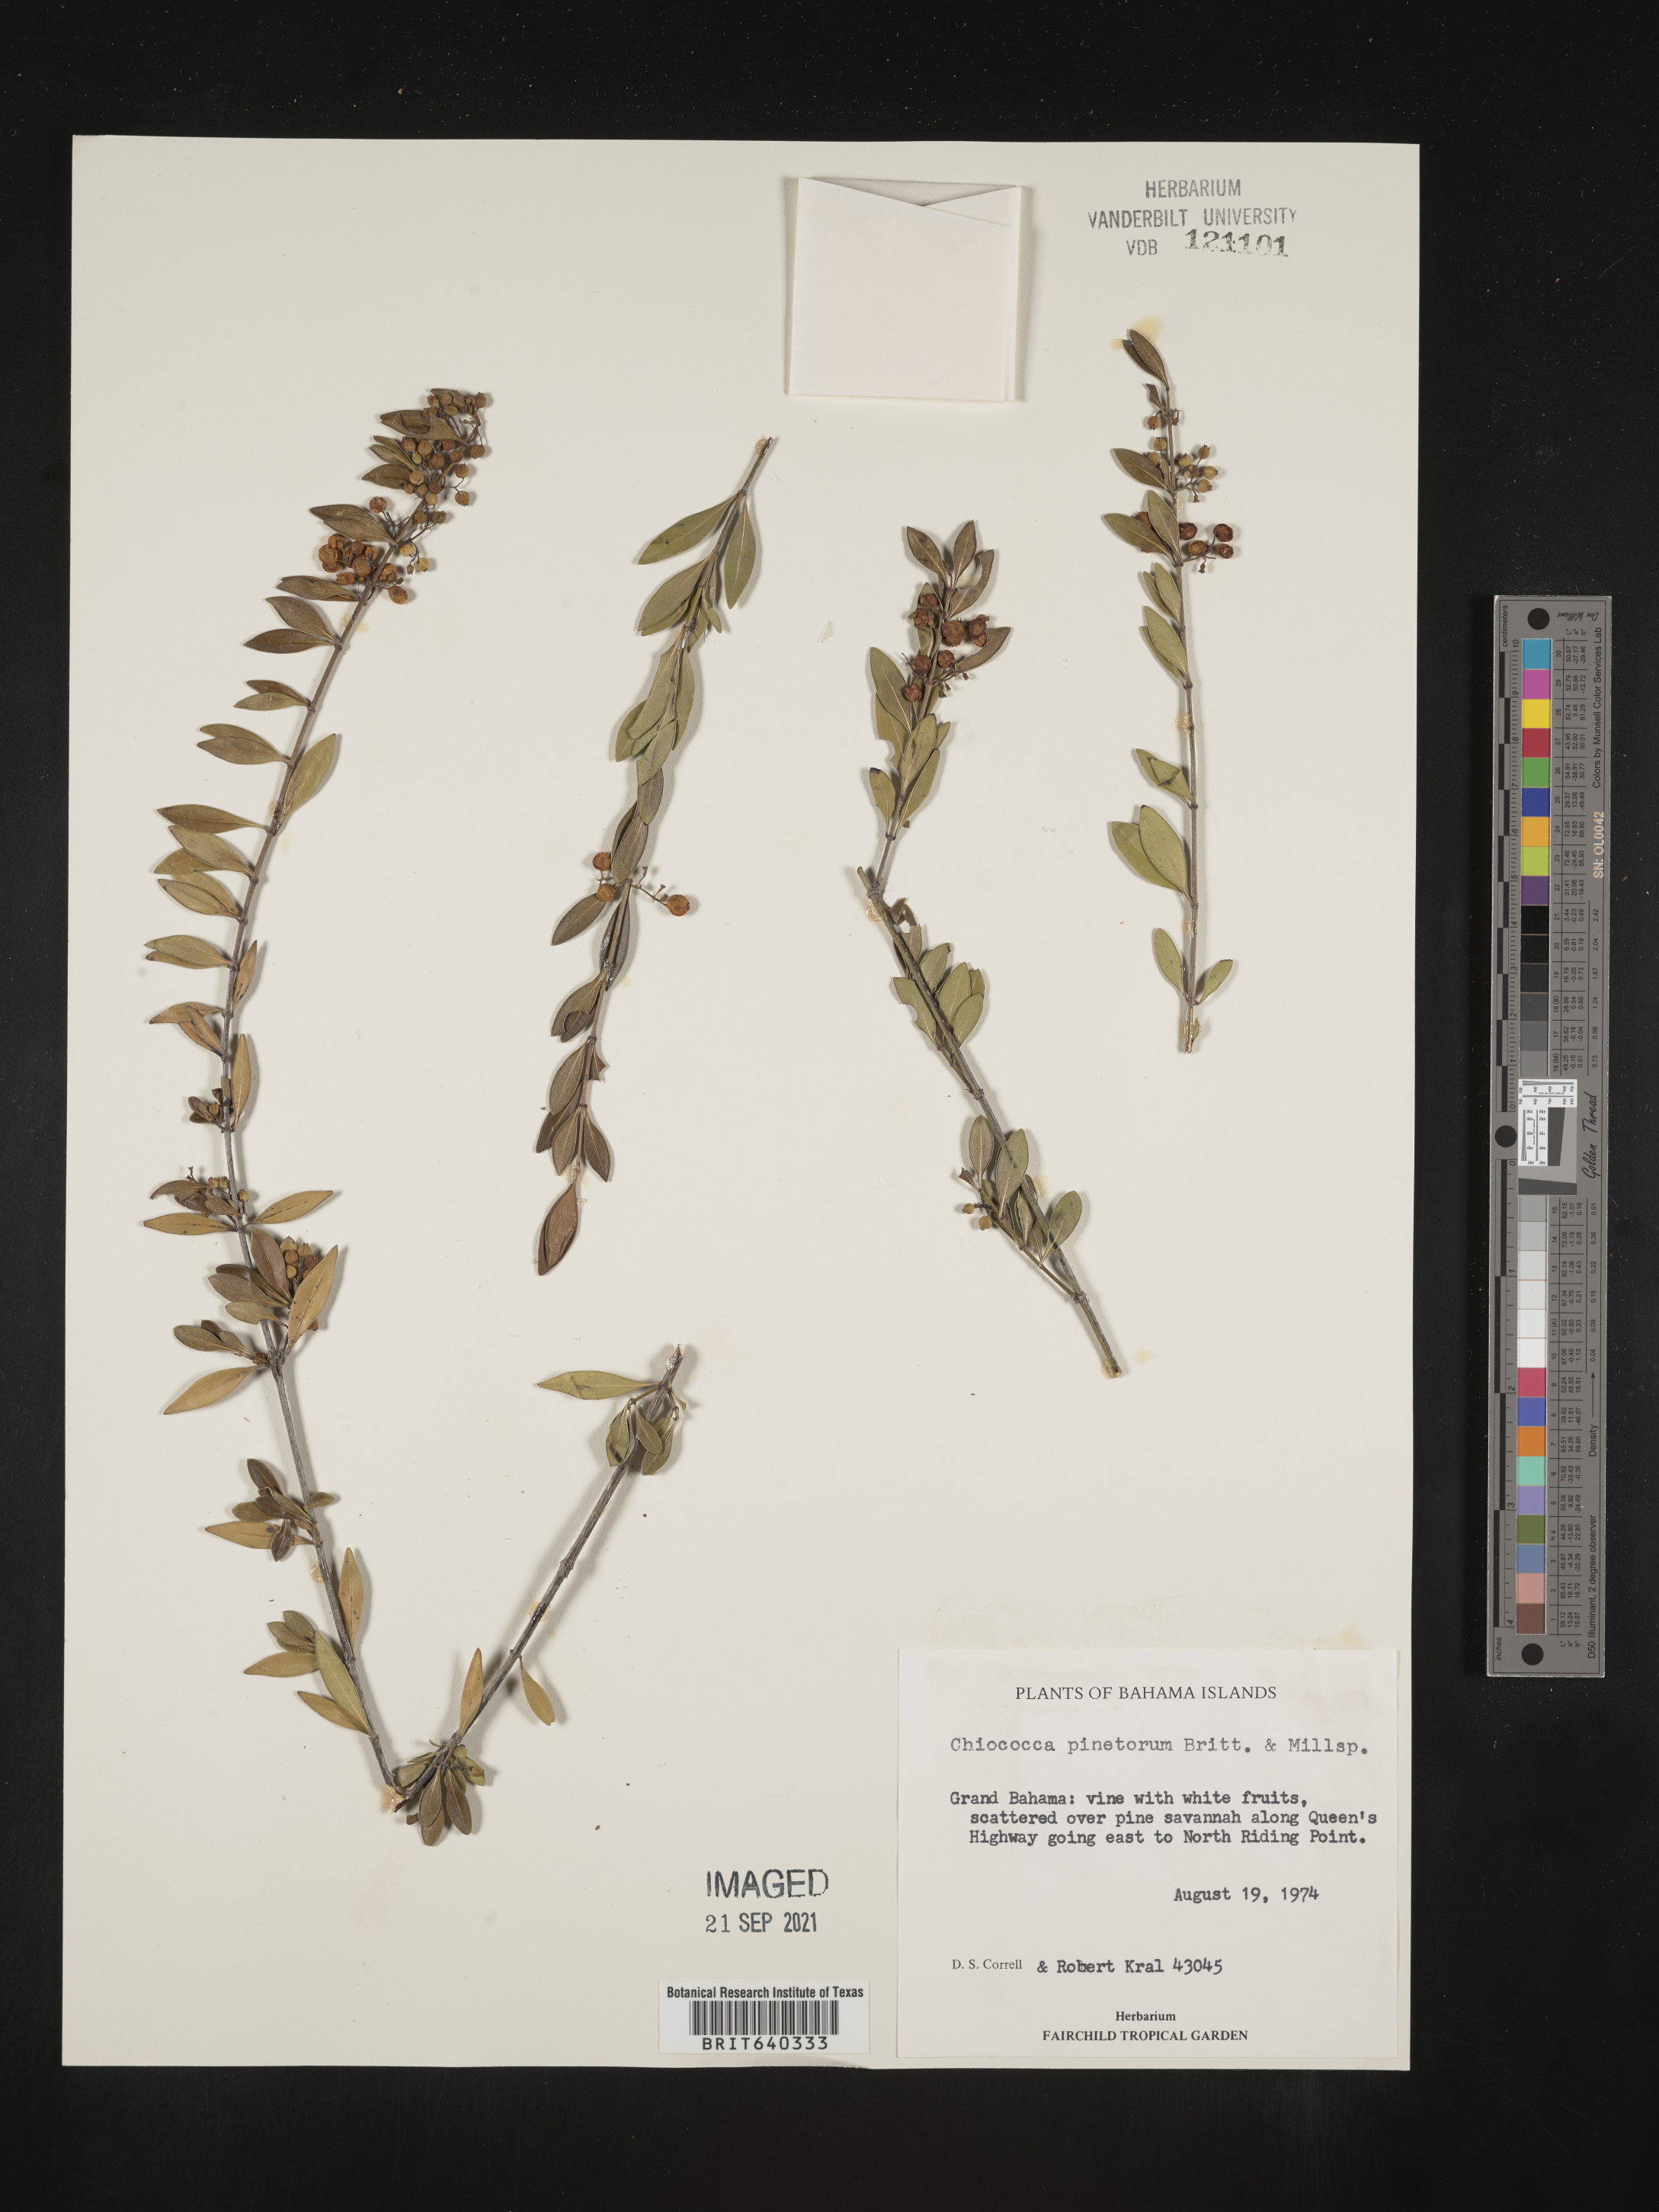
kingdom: Plantae
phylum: Tracheophyta
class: Magnoliopsida
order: Gentianales
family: Rubiaceae
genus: Chiococca
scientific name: Chiococca
